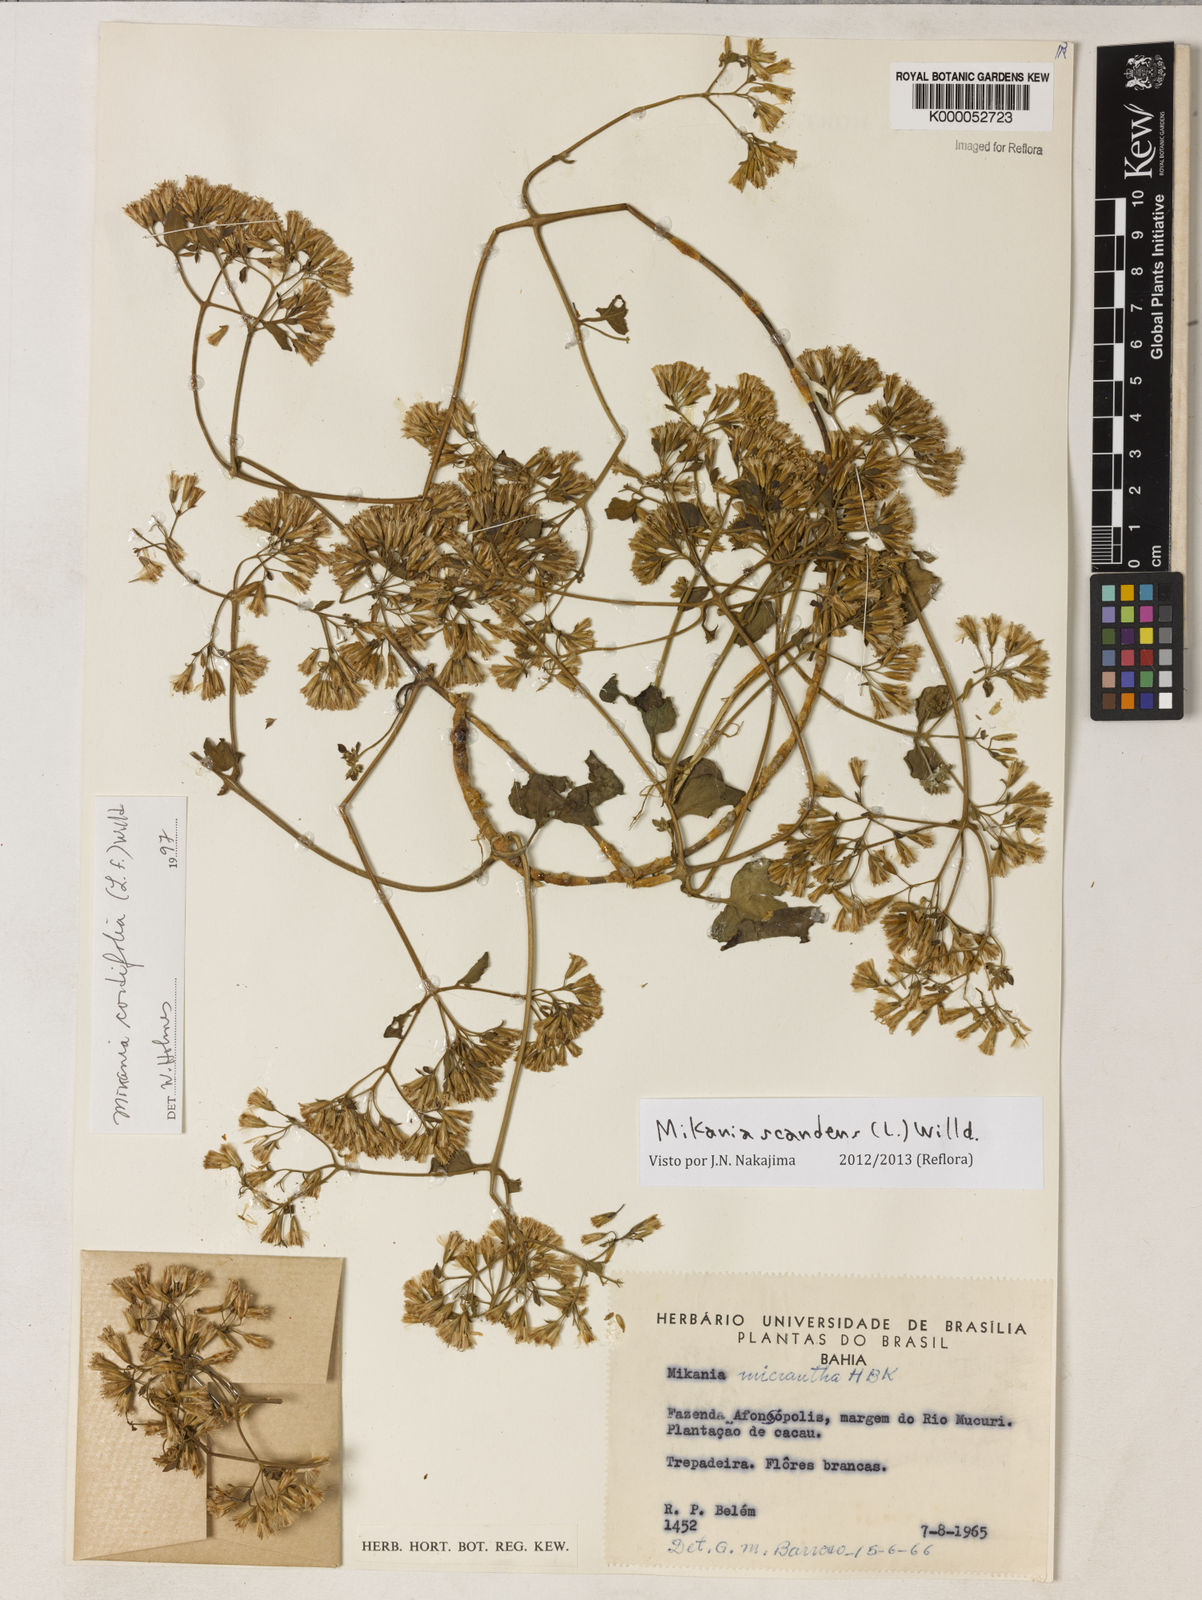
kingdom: Plantae
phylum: Tracheophyta
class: Magnoliopsida
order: Asterales
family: Asteraceae
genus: Mikania
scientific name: Mikania scandens
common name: Climbing hempvine
